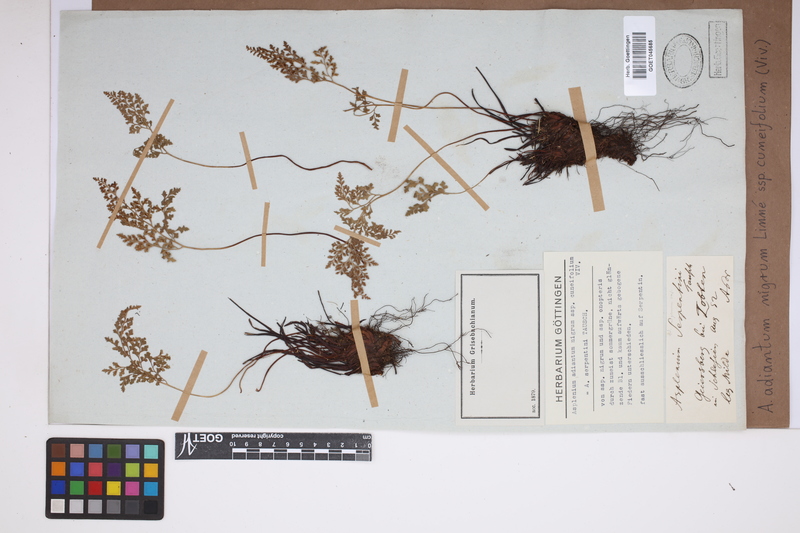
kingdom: Plantae
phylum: Tracheophyta
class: Polypodiopsida
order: Polypodiales
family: Aspleniaceae
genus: Asplenium
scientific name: Asplenium cuneifolium
